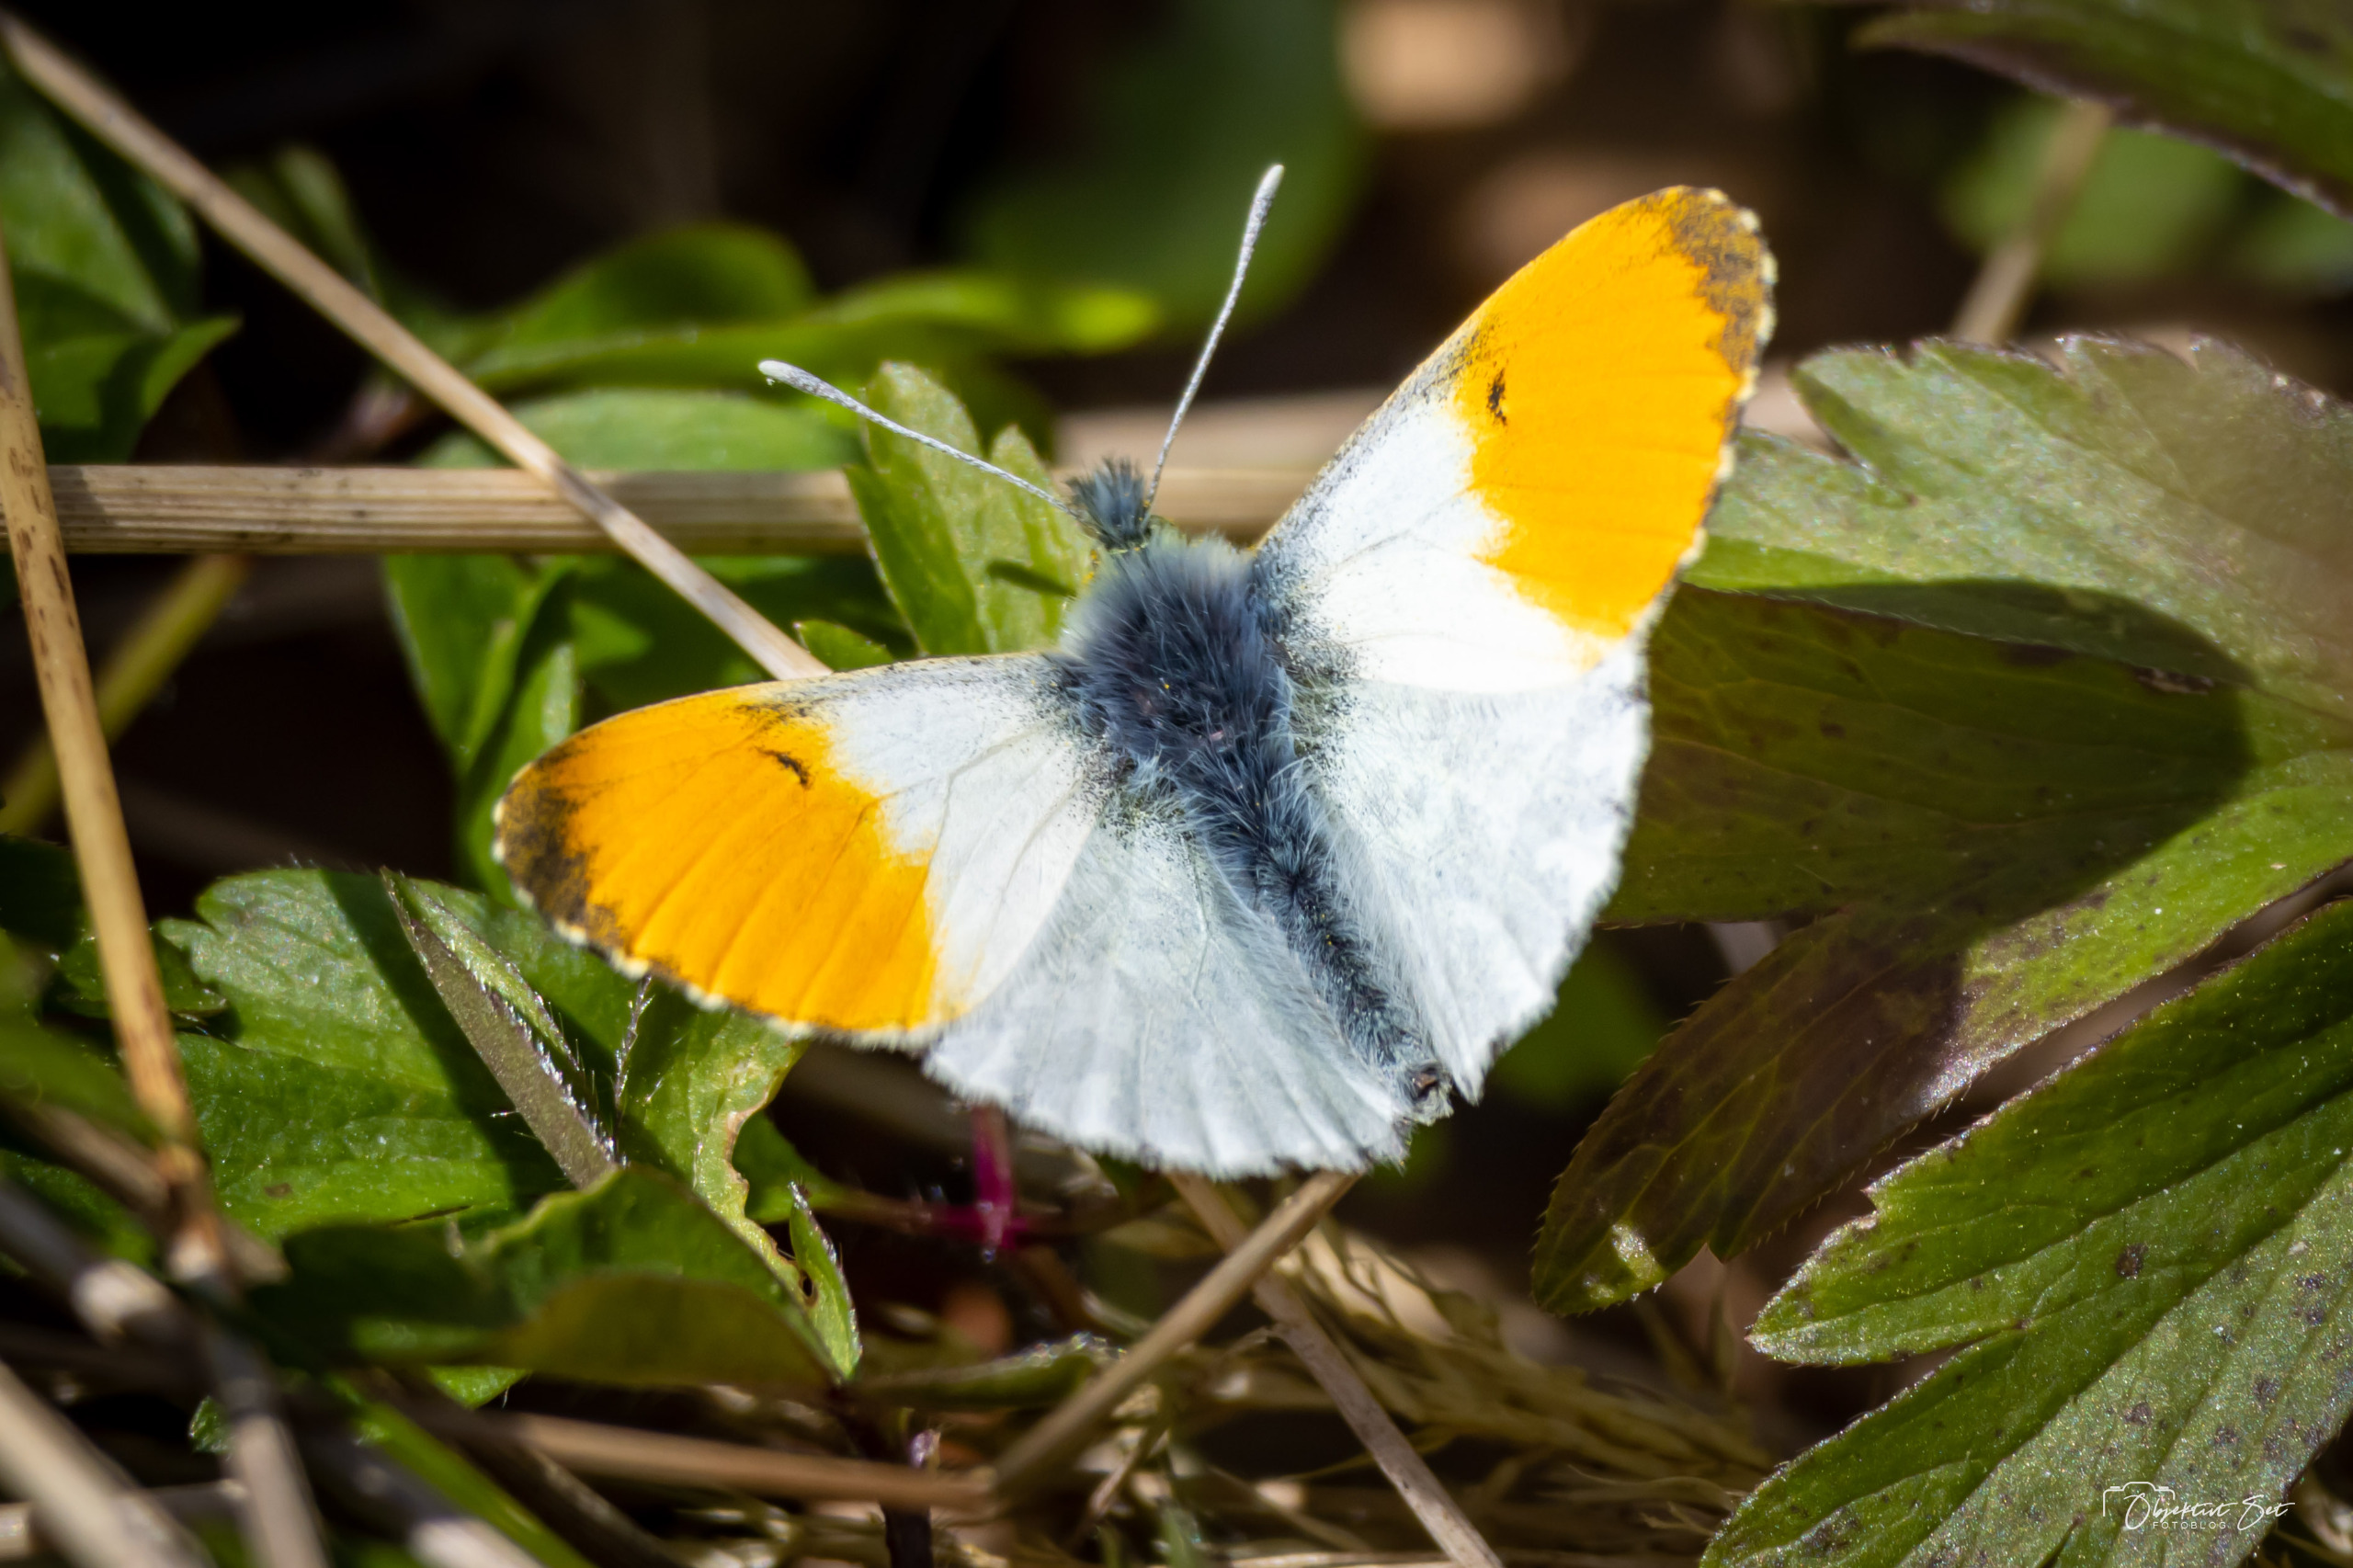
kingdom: Animalia
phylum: Arthropoda
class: Insecta
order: Lepidoptera
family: Pieridae
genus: Anthocharis
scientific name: Anthocharis cardamines
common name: Aurora
